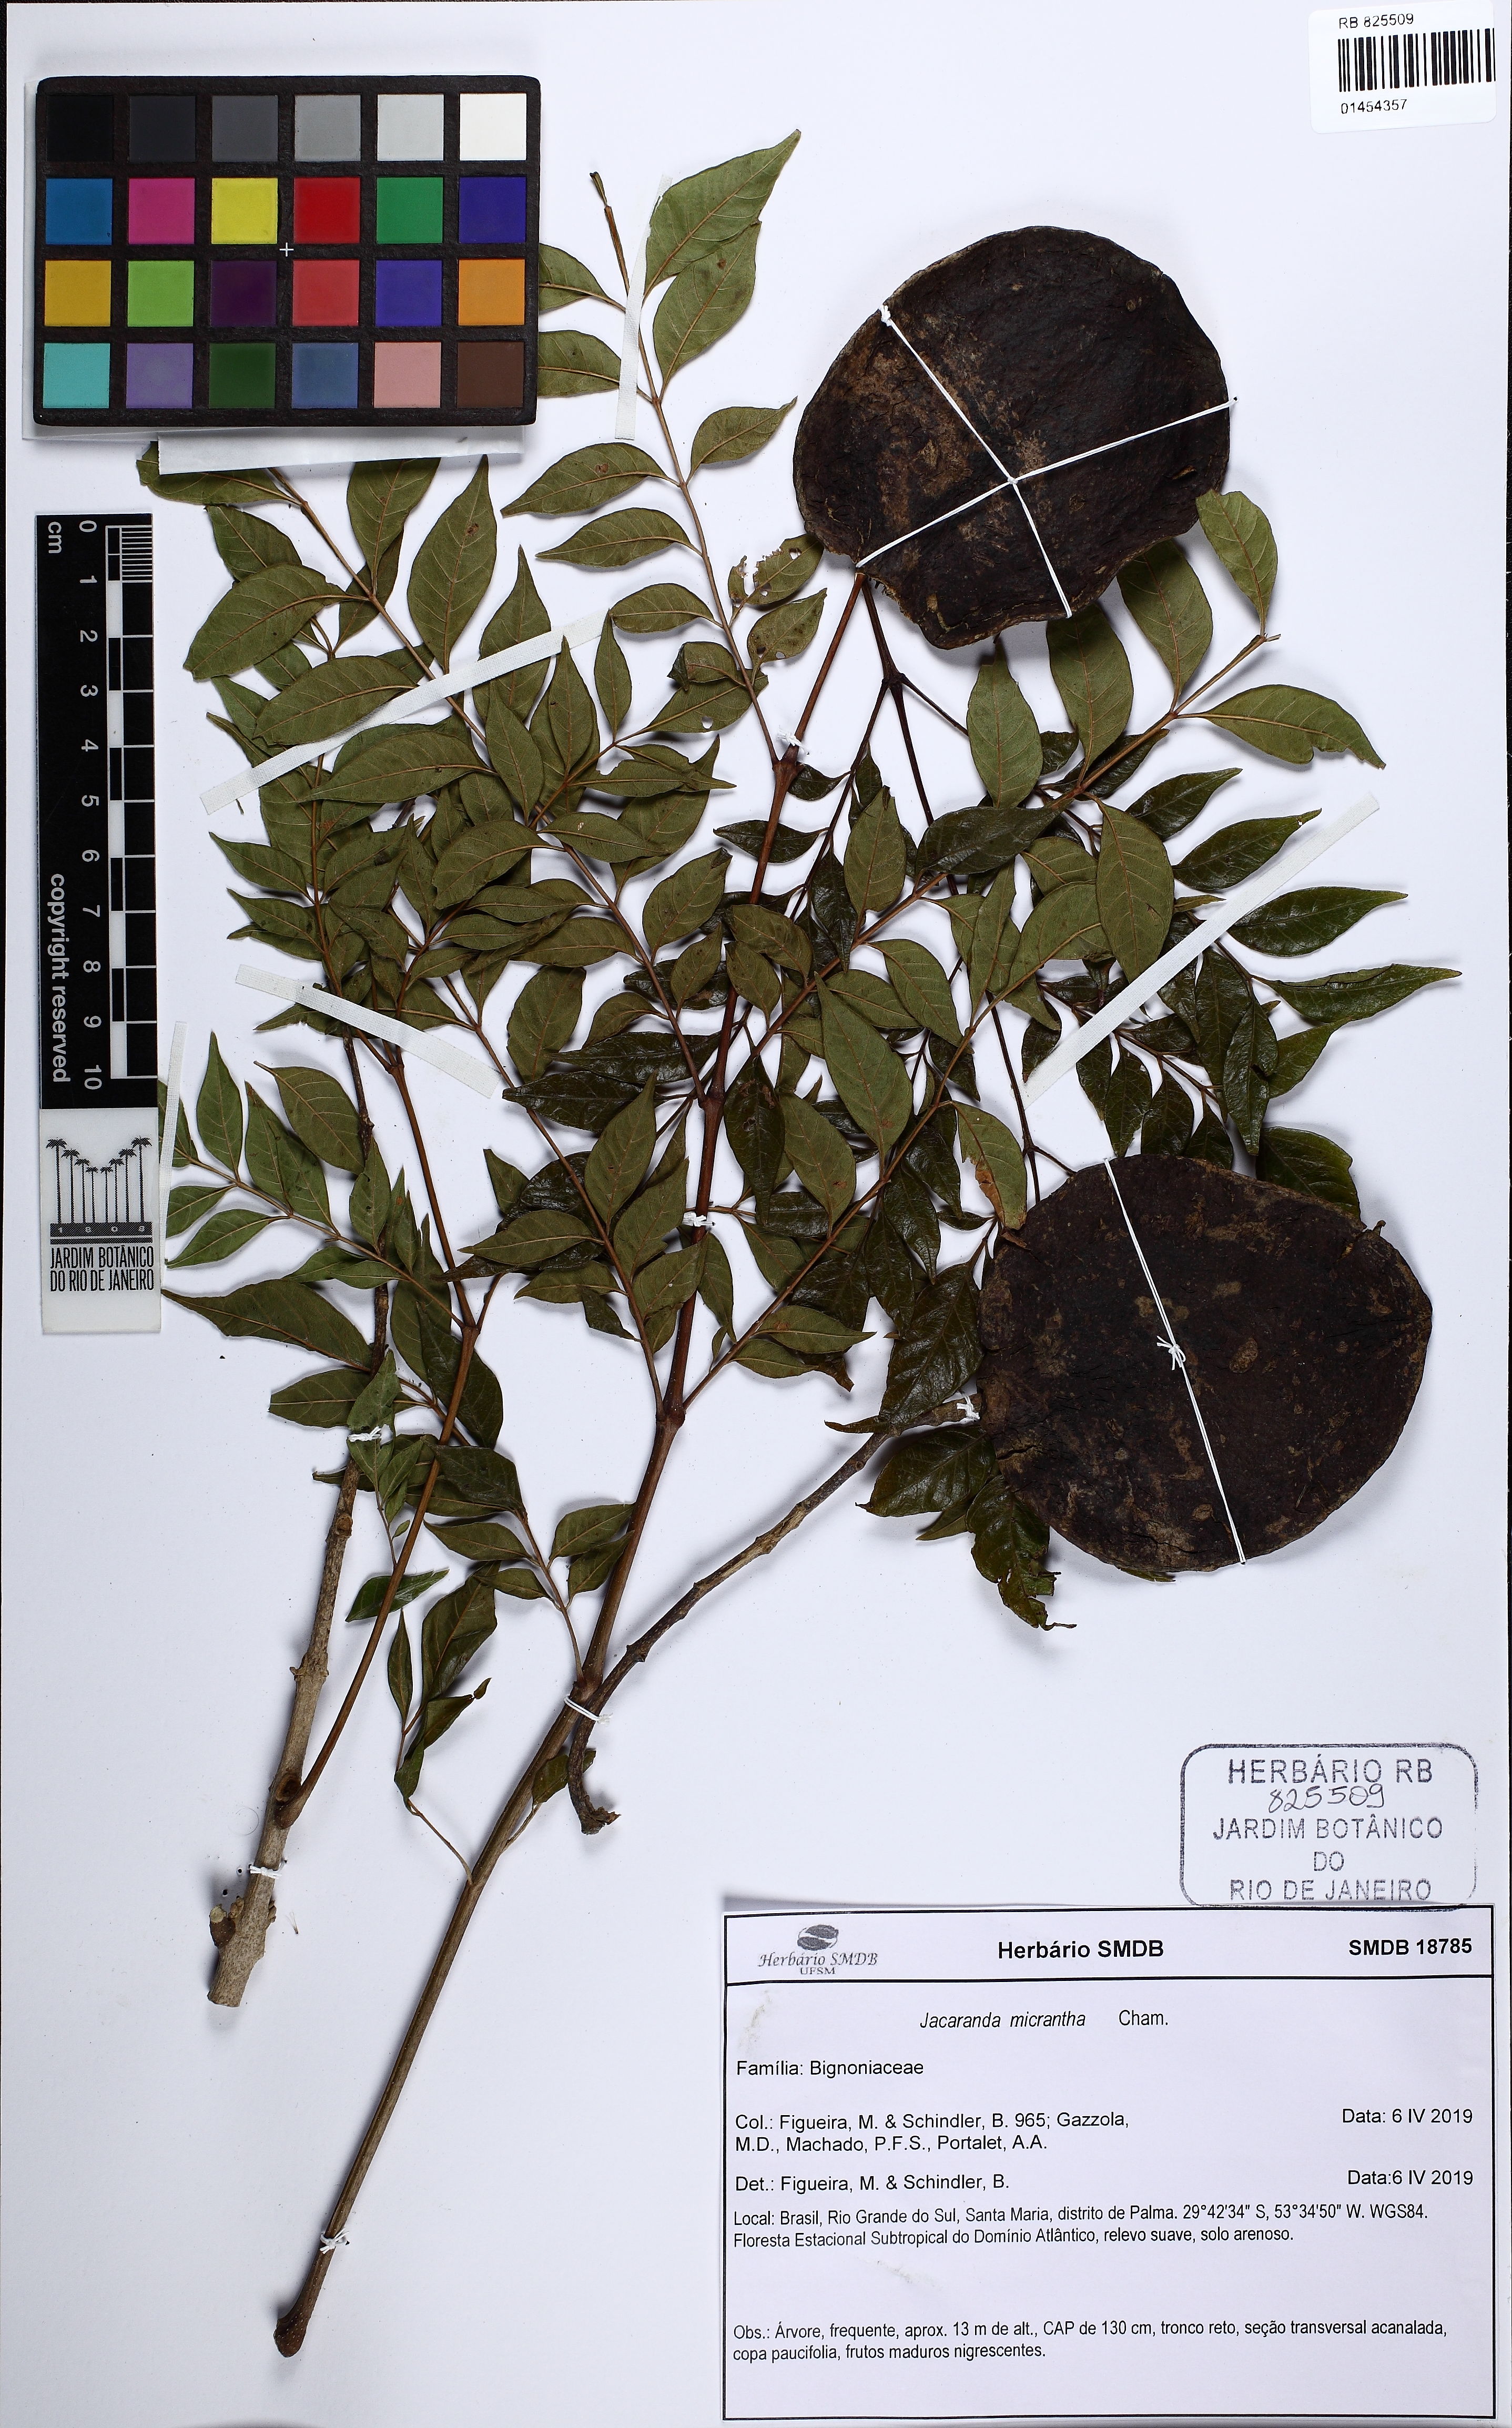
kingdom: Plantae
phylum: Tracheophyta
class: Magnoliopsida
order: Lamiales
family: Bignoniaceae
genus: Jacaranda
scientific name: Jacaranda micrantha
